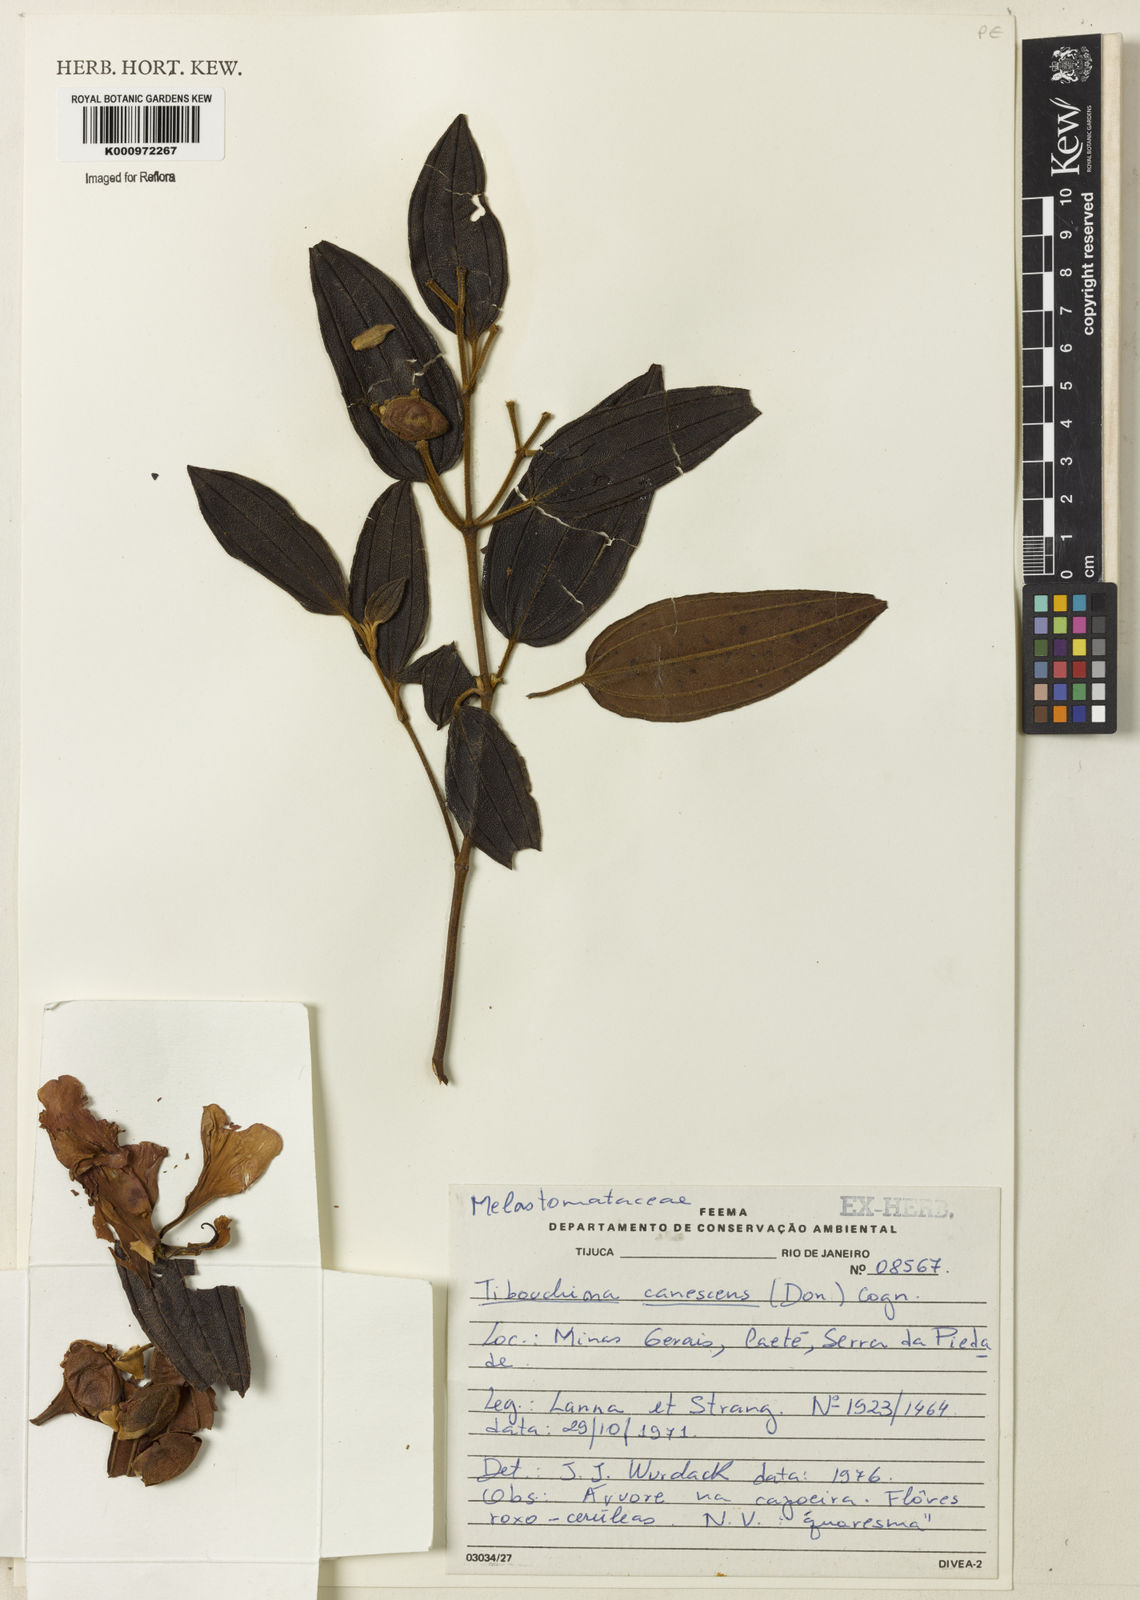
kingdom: Plantae
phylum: Tracheophyta
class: Magnoliopsida
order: Myrtales
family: Melastomataceae
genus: Pleroma
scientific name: Pleroma canescens
